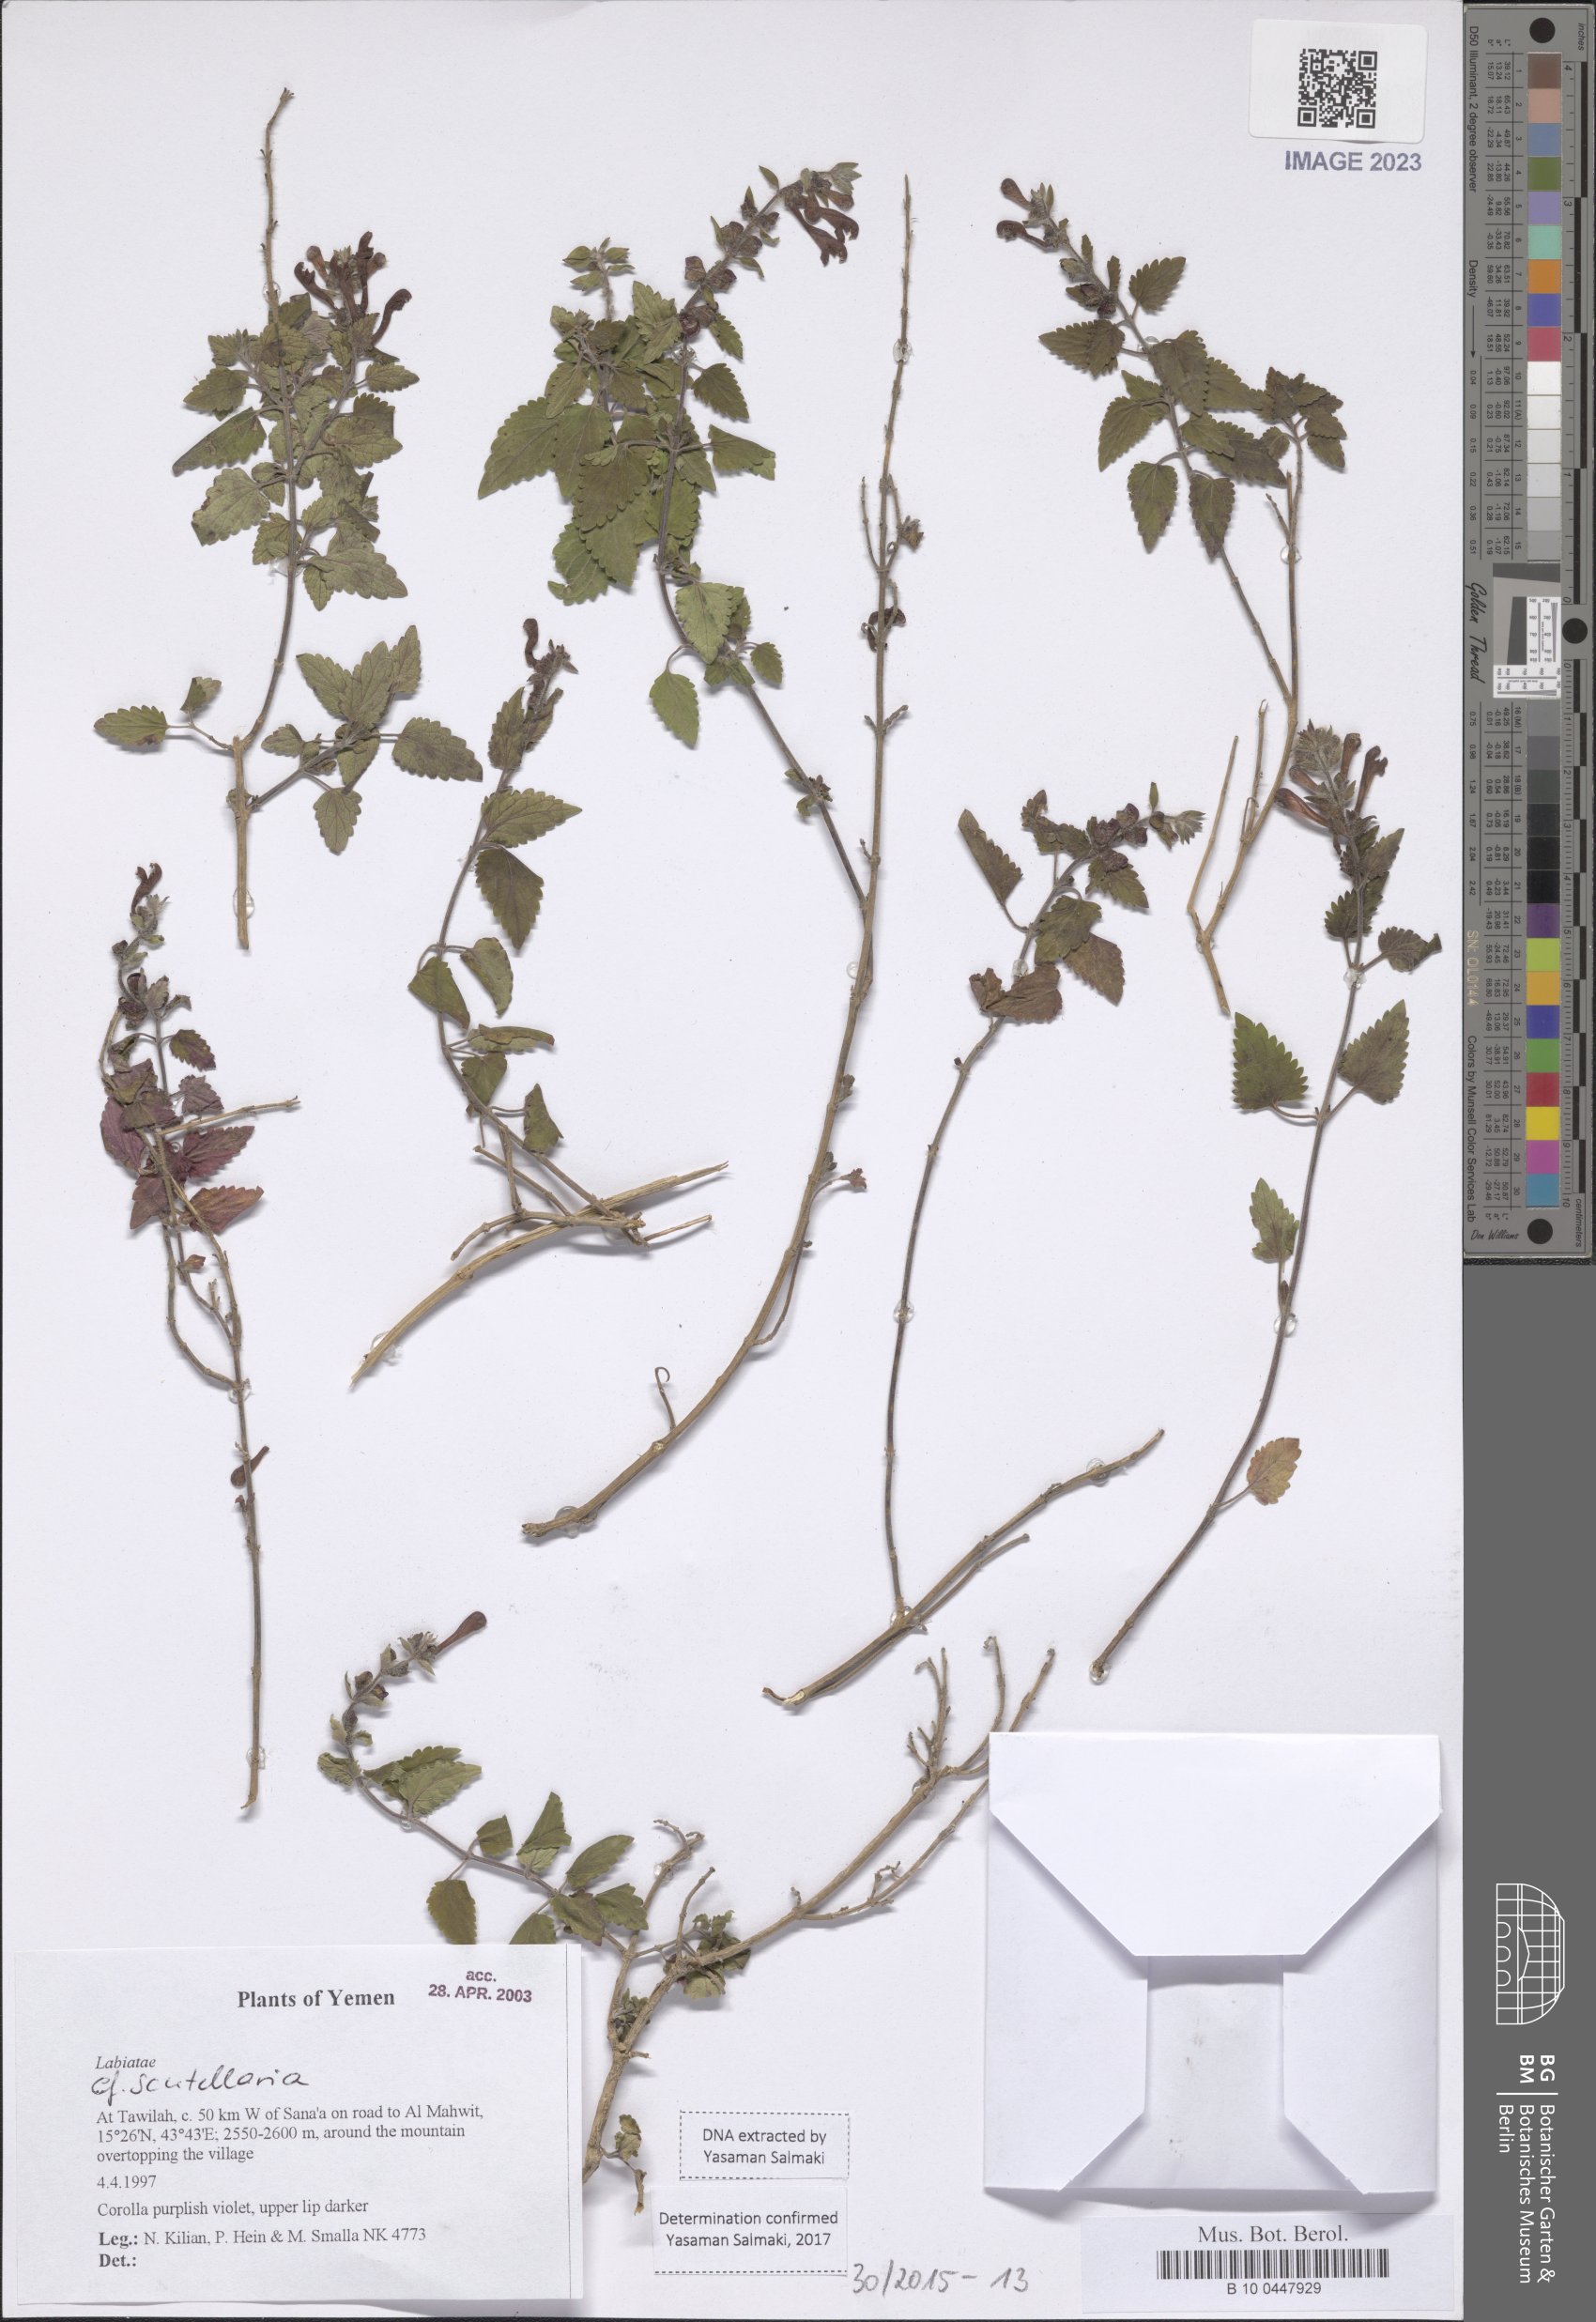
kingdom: Plantae
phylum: Tracheophyta
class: Magnoliopsida
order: Lamiales
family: Lamiaceae
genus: Scutellaria
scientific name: Scutellaria
